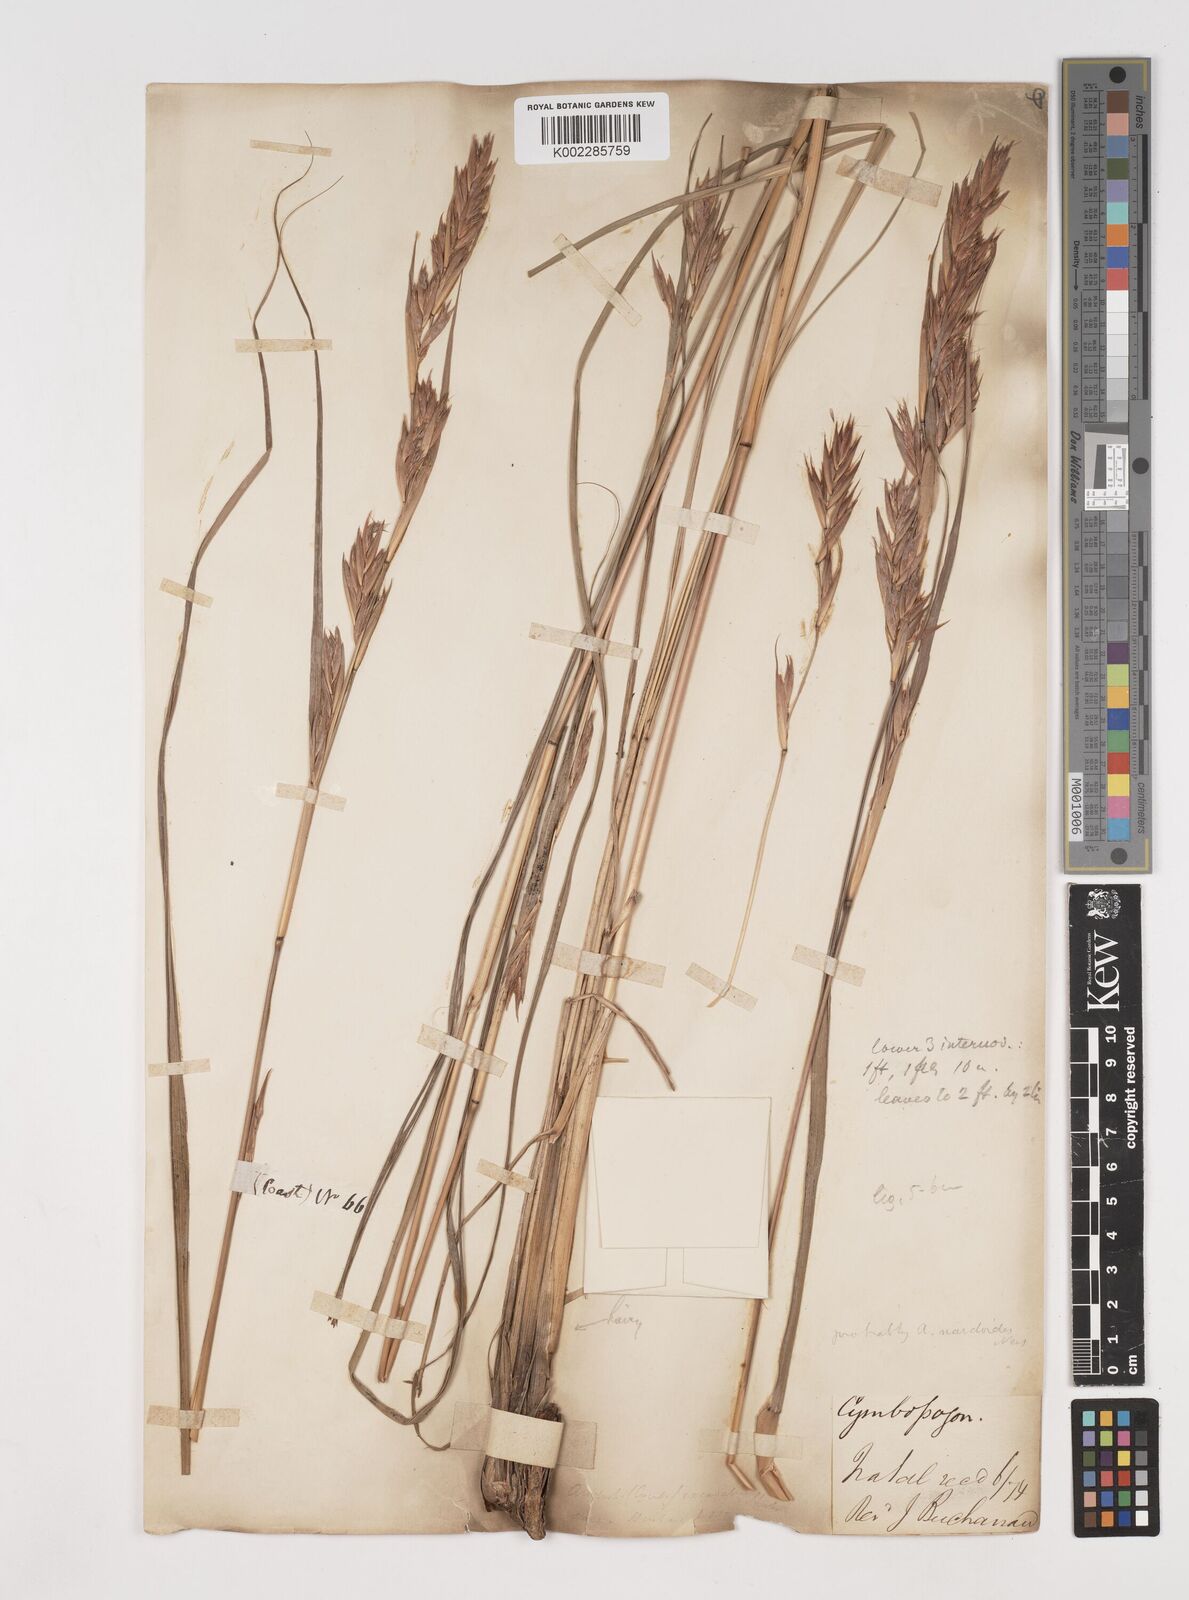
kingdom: Plantae
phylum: Tracheophyta
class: Liliopsida
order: Poales
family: Poaceae
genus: Cymbopogon
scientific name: Cymbopogon nardus
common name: Giant turpentine grass
